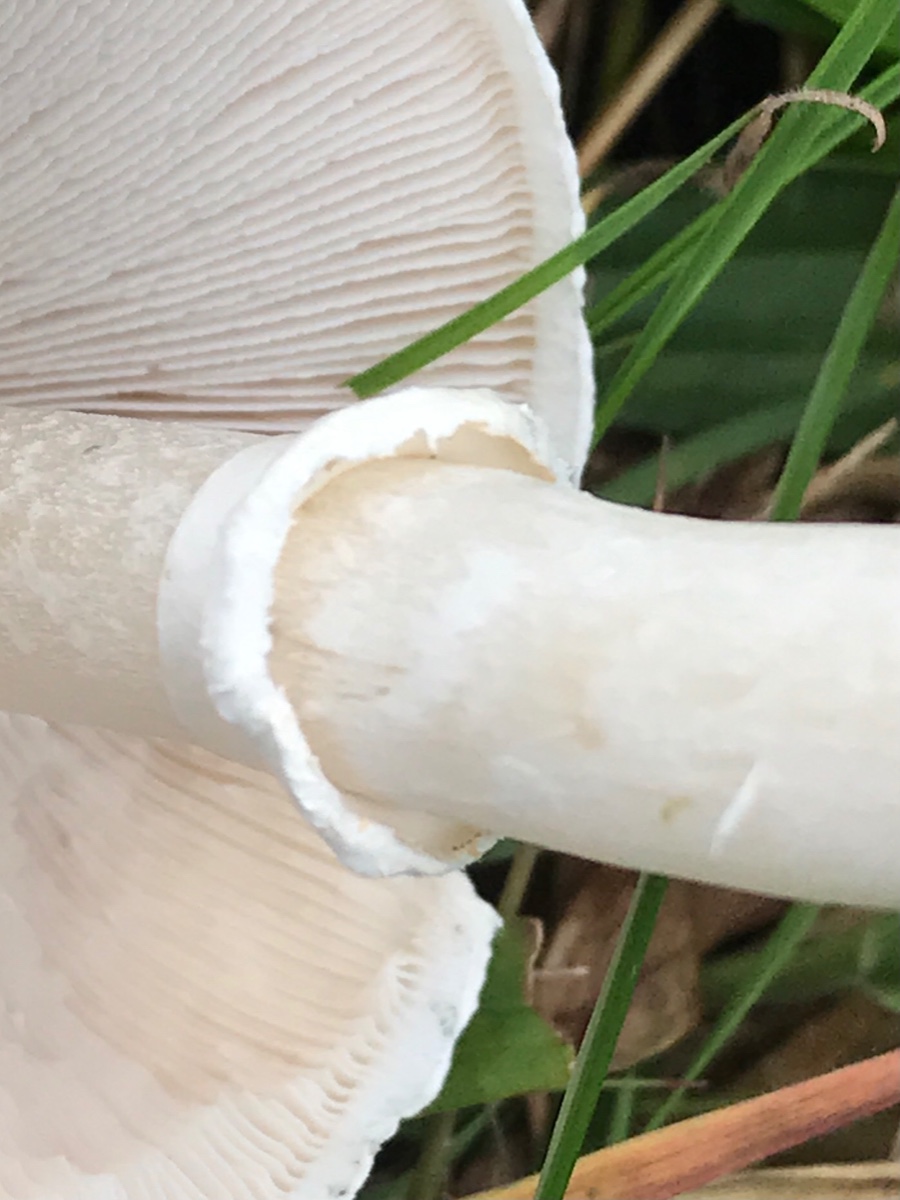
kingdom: Fungi
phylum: Basidiomycota
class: Agaricomycetes
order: Agaricales
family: Agaricaceae
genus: Macrolepiota
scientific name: Macrolepiota excoriata
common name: mark-kæmpeparasolhat
